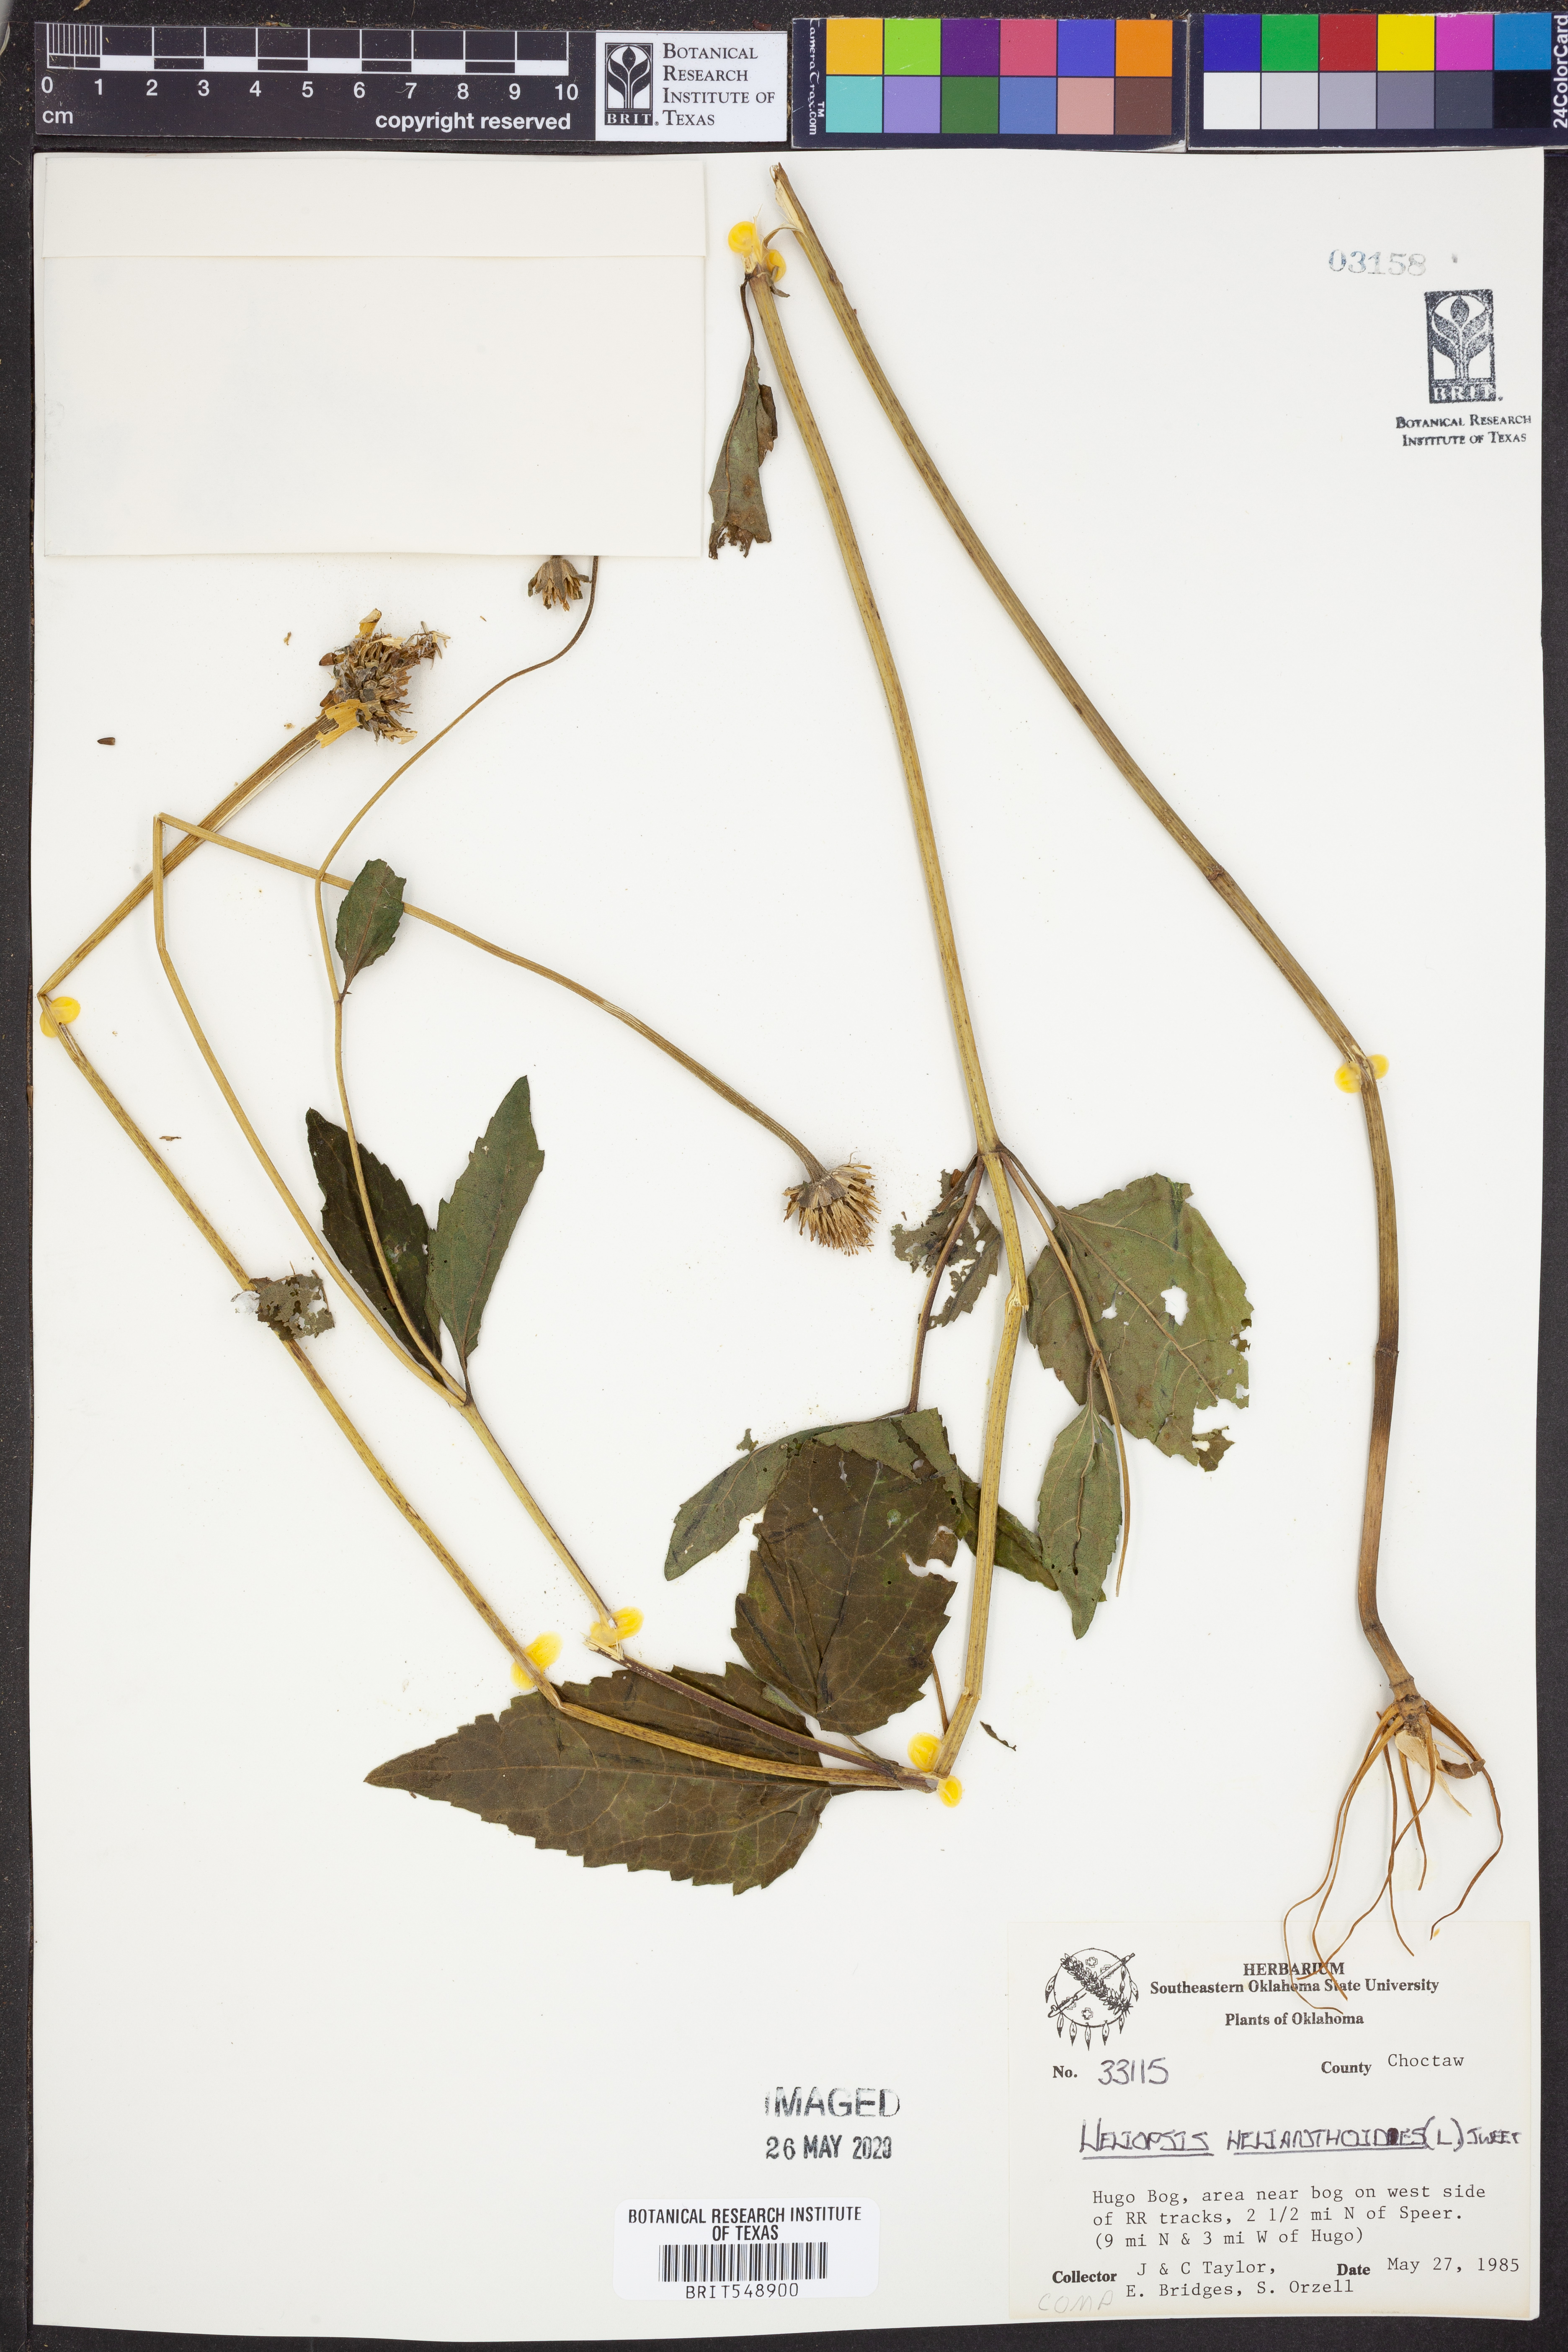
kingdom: Plantae
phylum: Tracheophyta
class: Magnoliopsida
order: Asterales
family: Asteraceae
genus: Heliopsis
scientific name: Heliopsis helianthoides
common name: False sunflower
